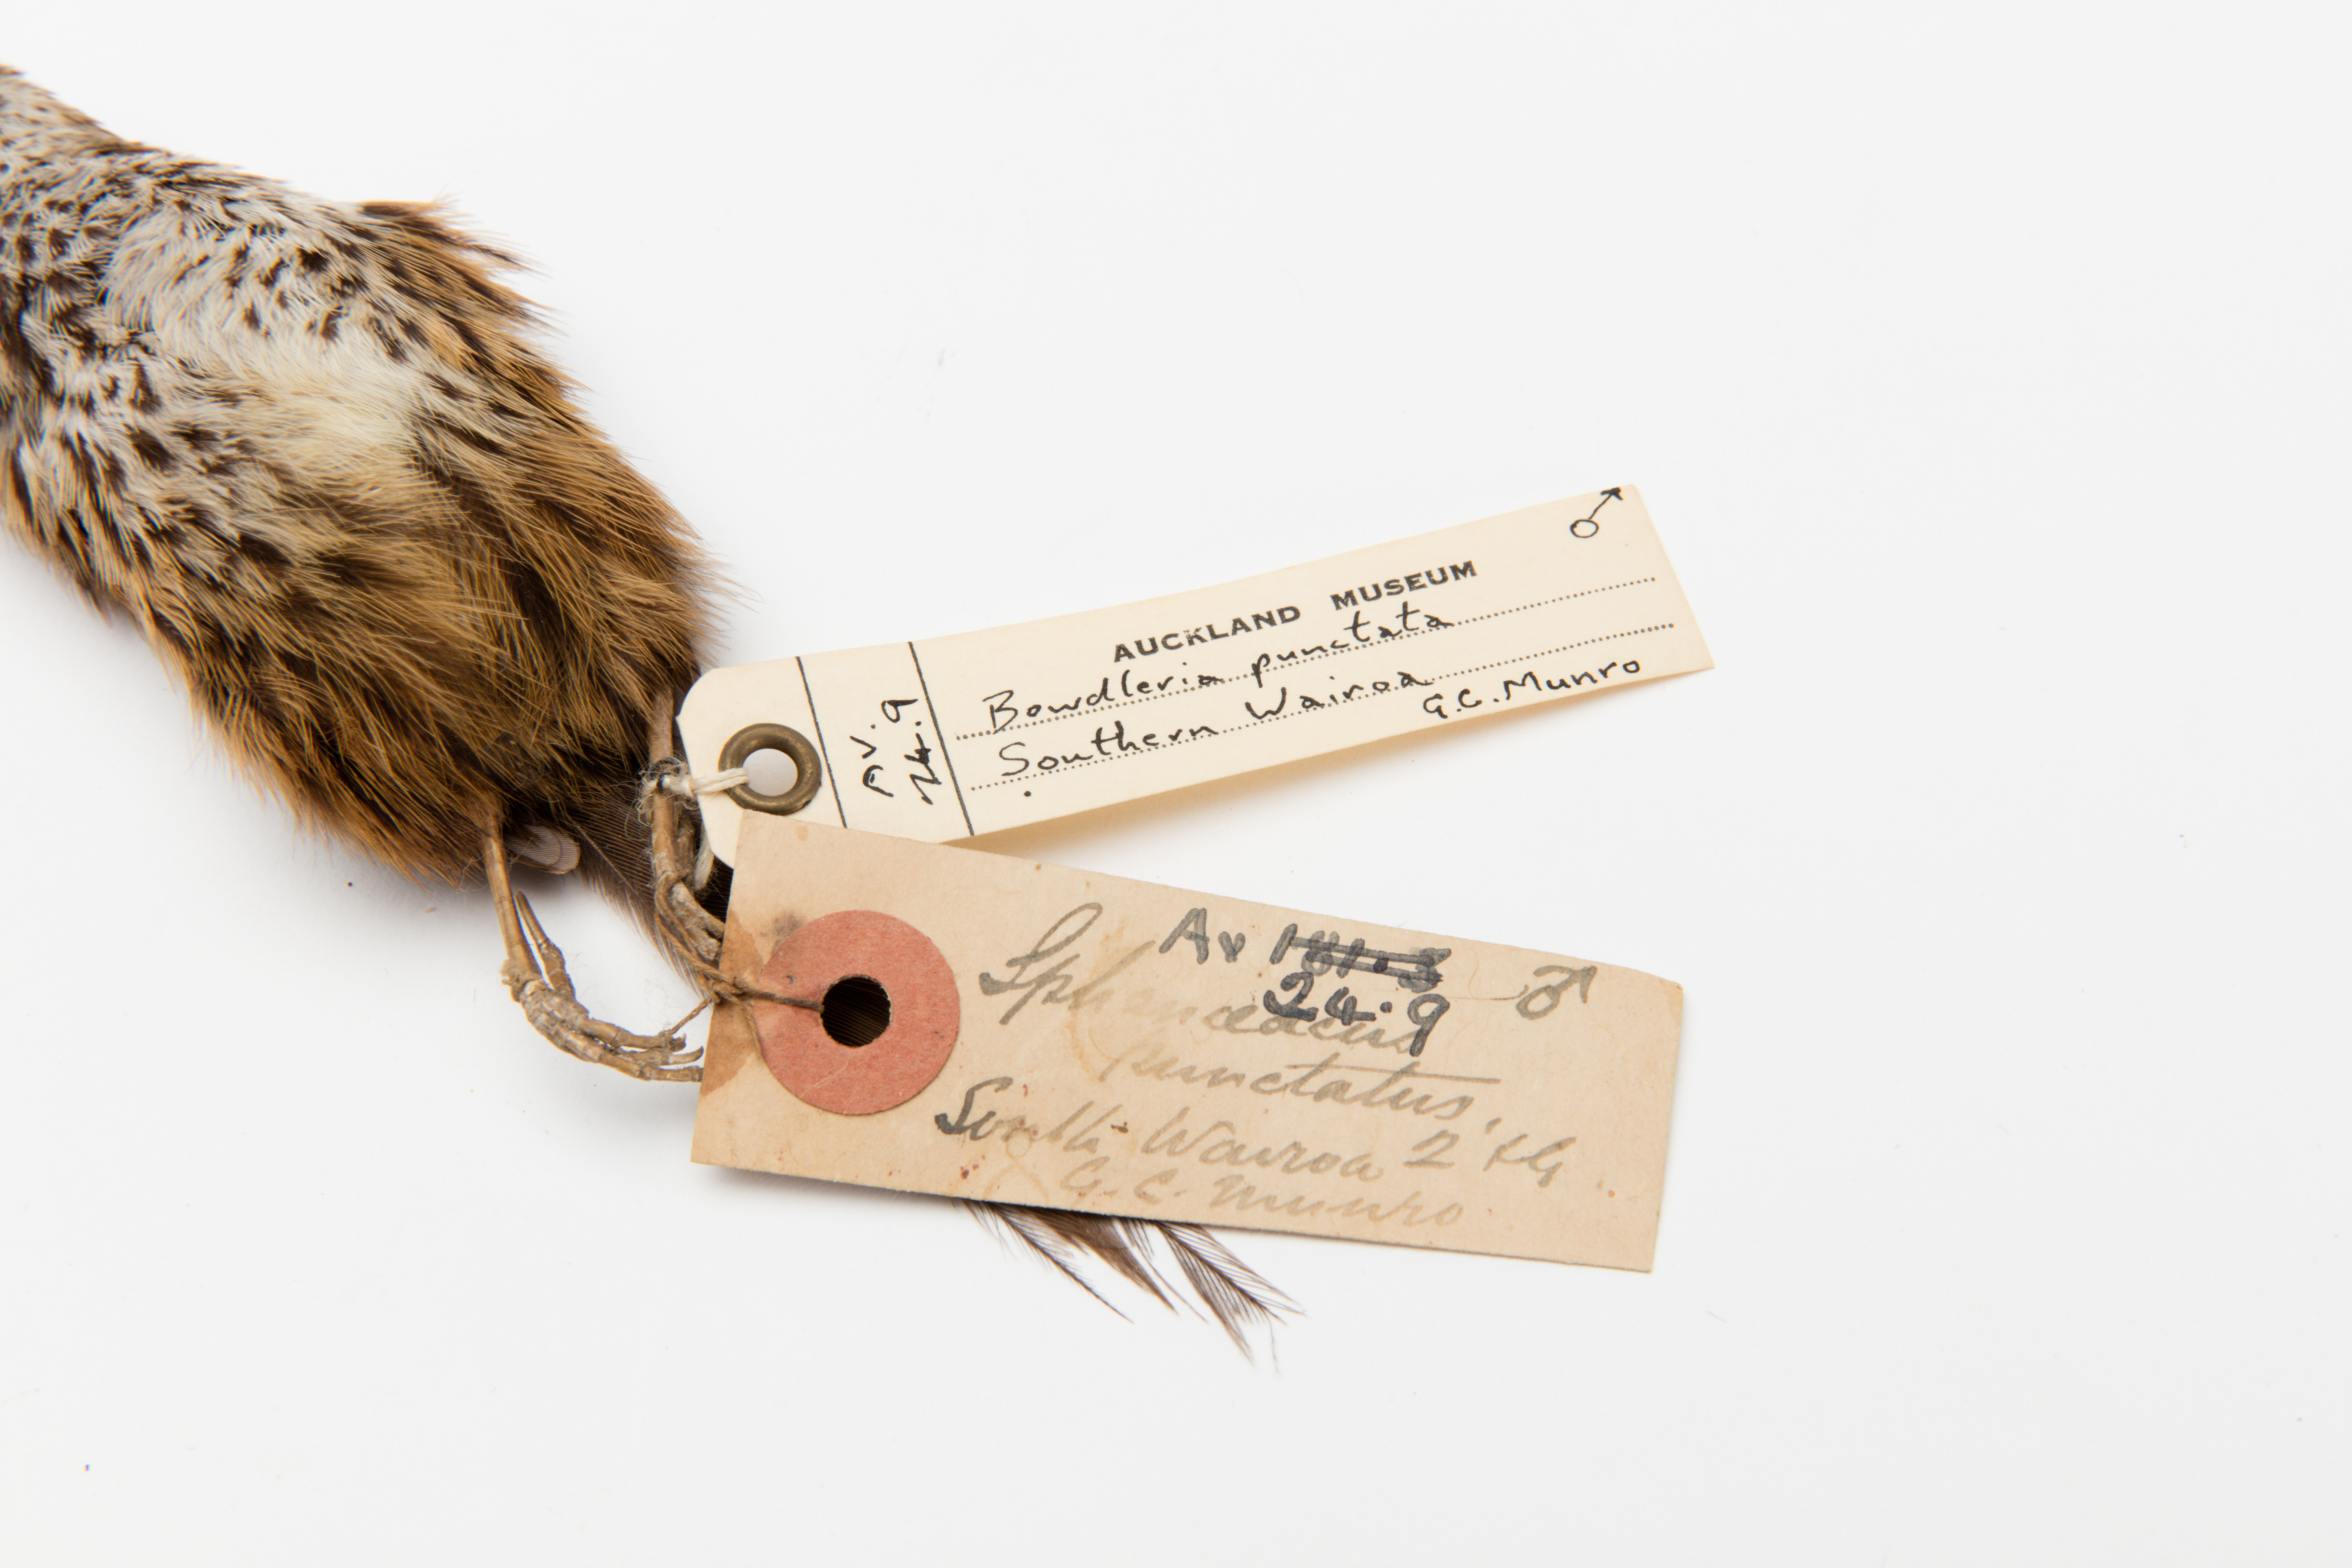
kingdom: Animalia
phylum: Chordata
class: Aves
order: Passeriformes
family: Locustellidae
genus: Megalurus
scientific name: Megalurus punctatus
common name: New zealand fernbird
